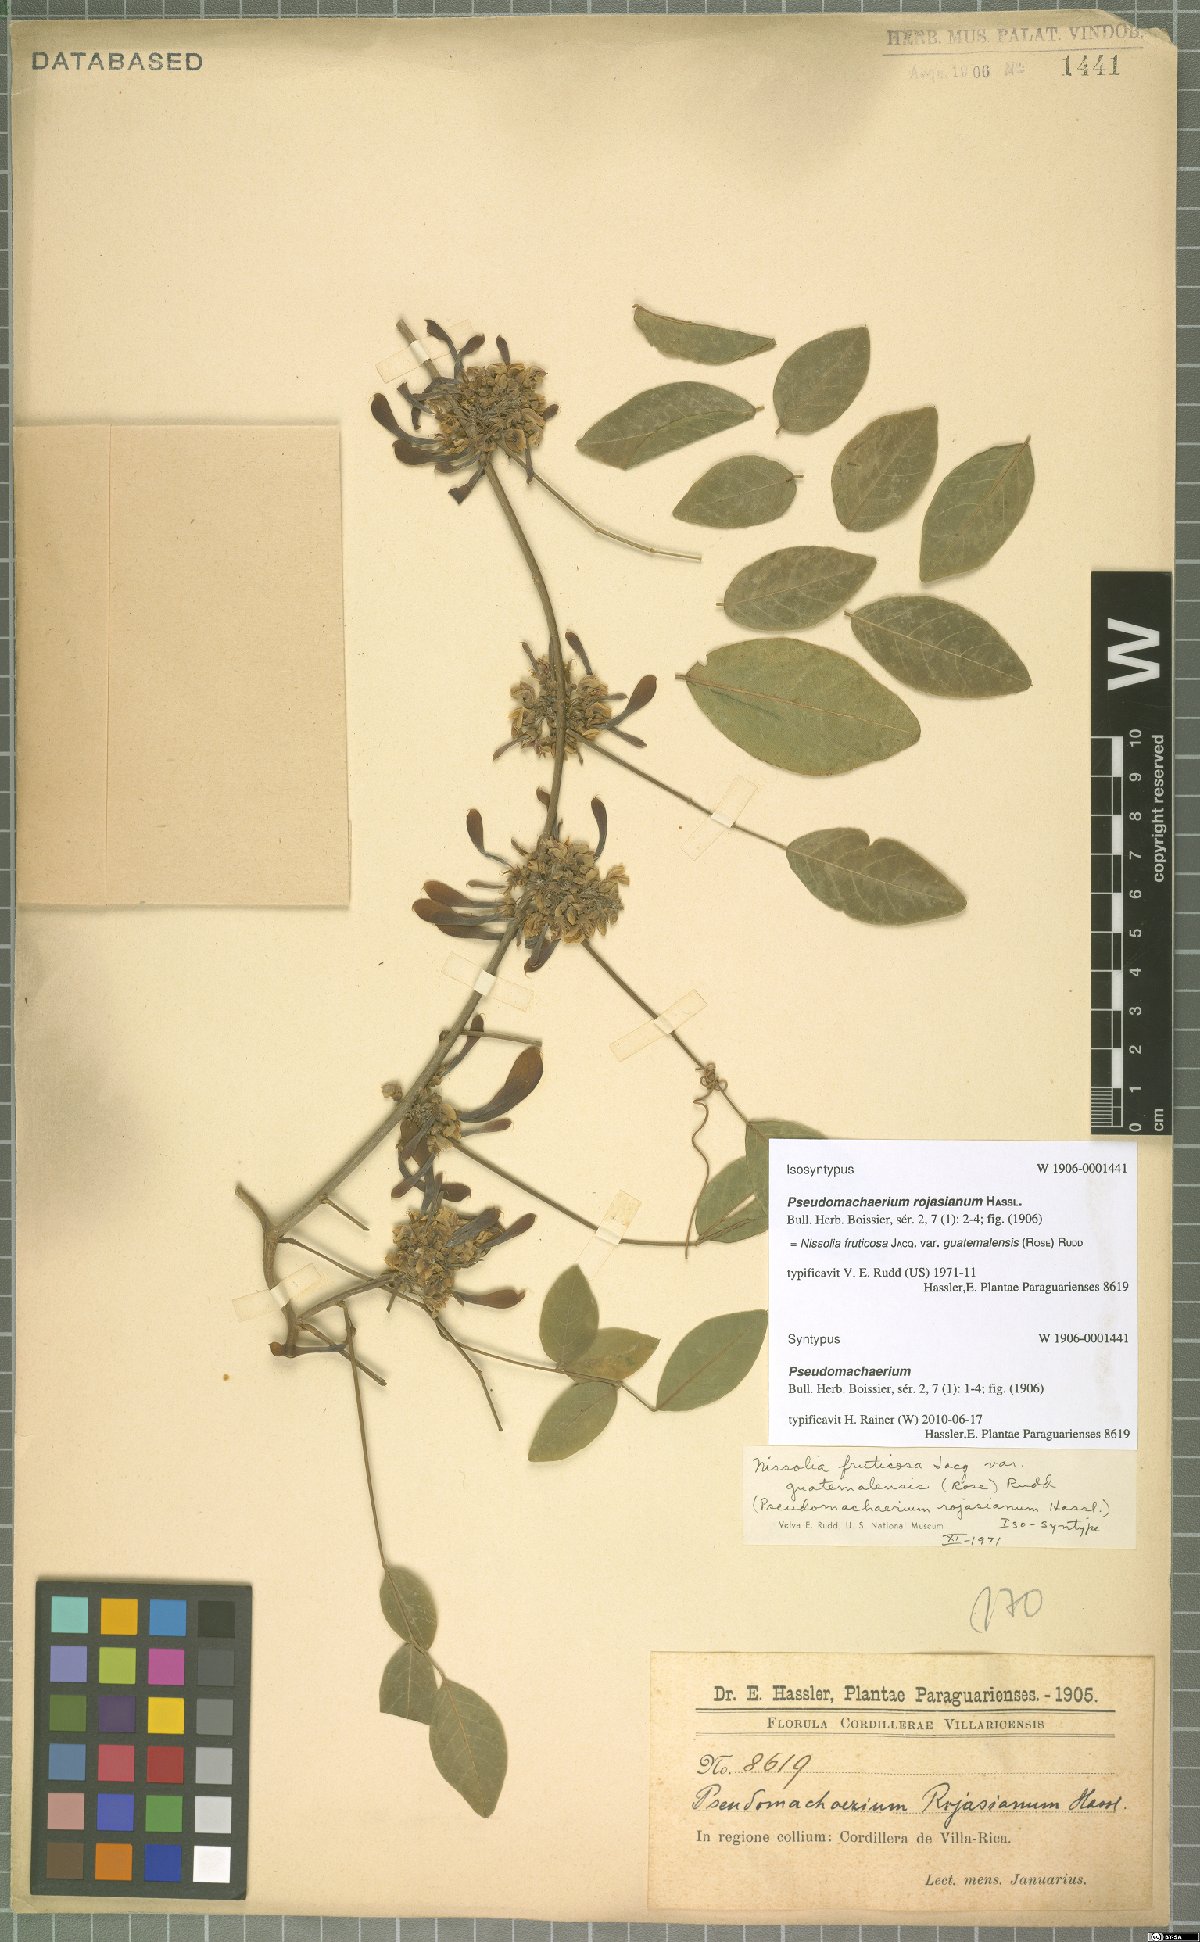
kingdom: Plantae
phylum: Tracheophyta
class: Magnoliopsida
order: Fabales
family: Fabaceae
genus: Nissolia
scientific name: Nissolia fruticosa
